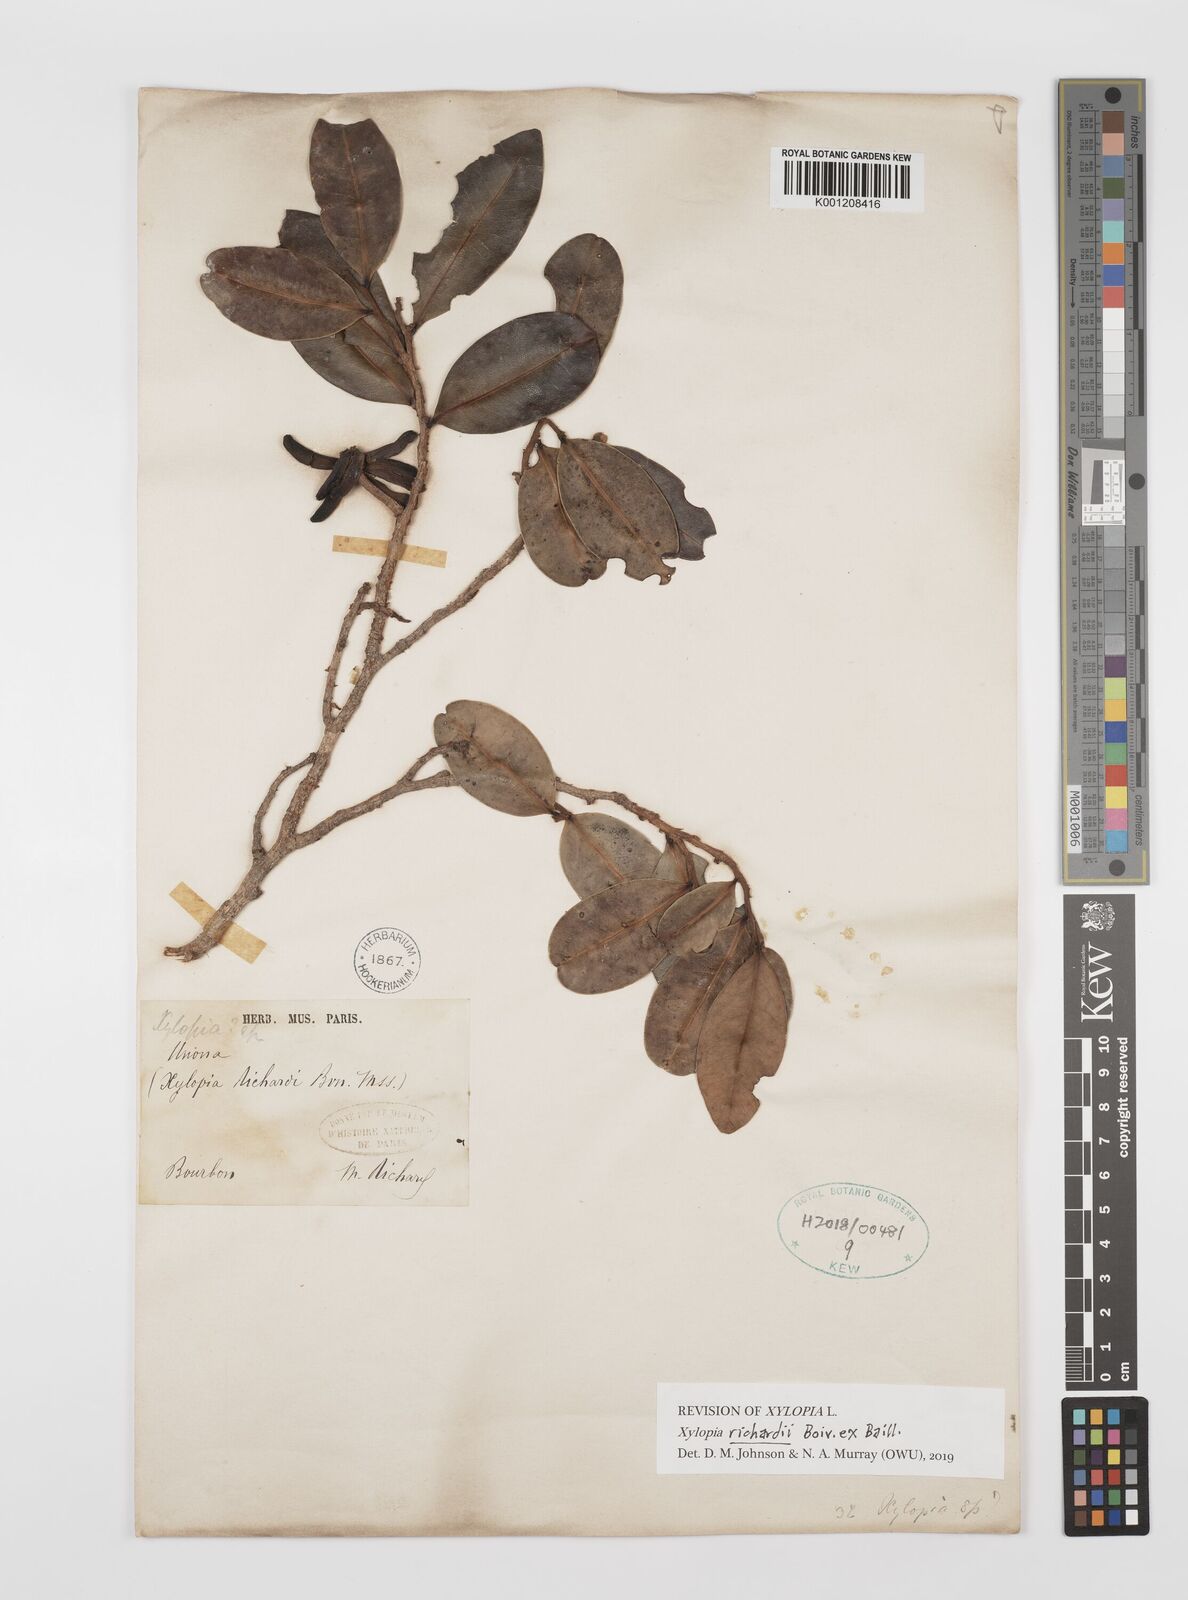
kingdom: Plantae
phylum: Tracheophyta
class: Magnoliopsida
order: Magnoliales
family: Annonaceae
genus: Xylopia
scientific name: Xylopia richardii
